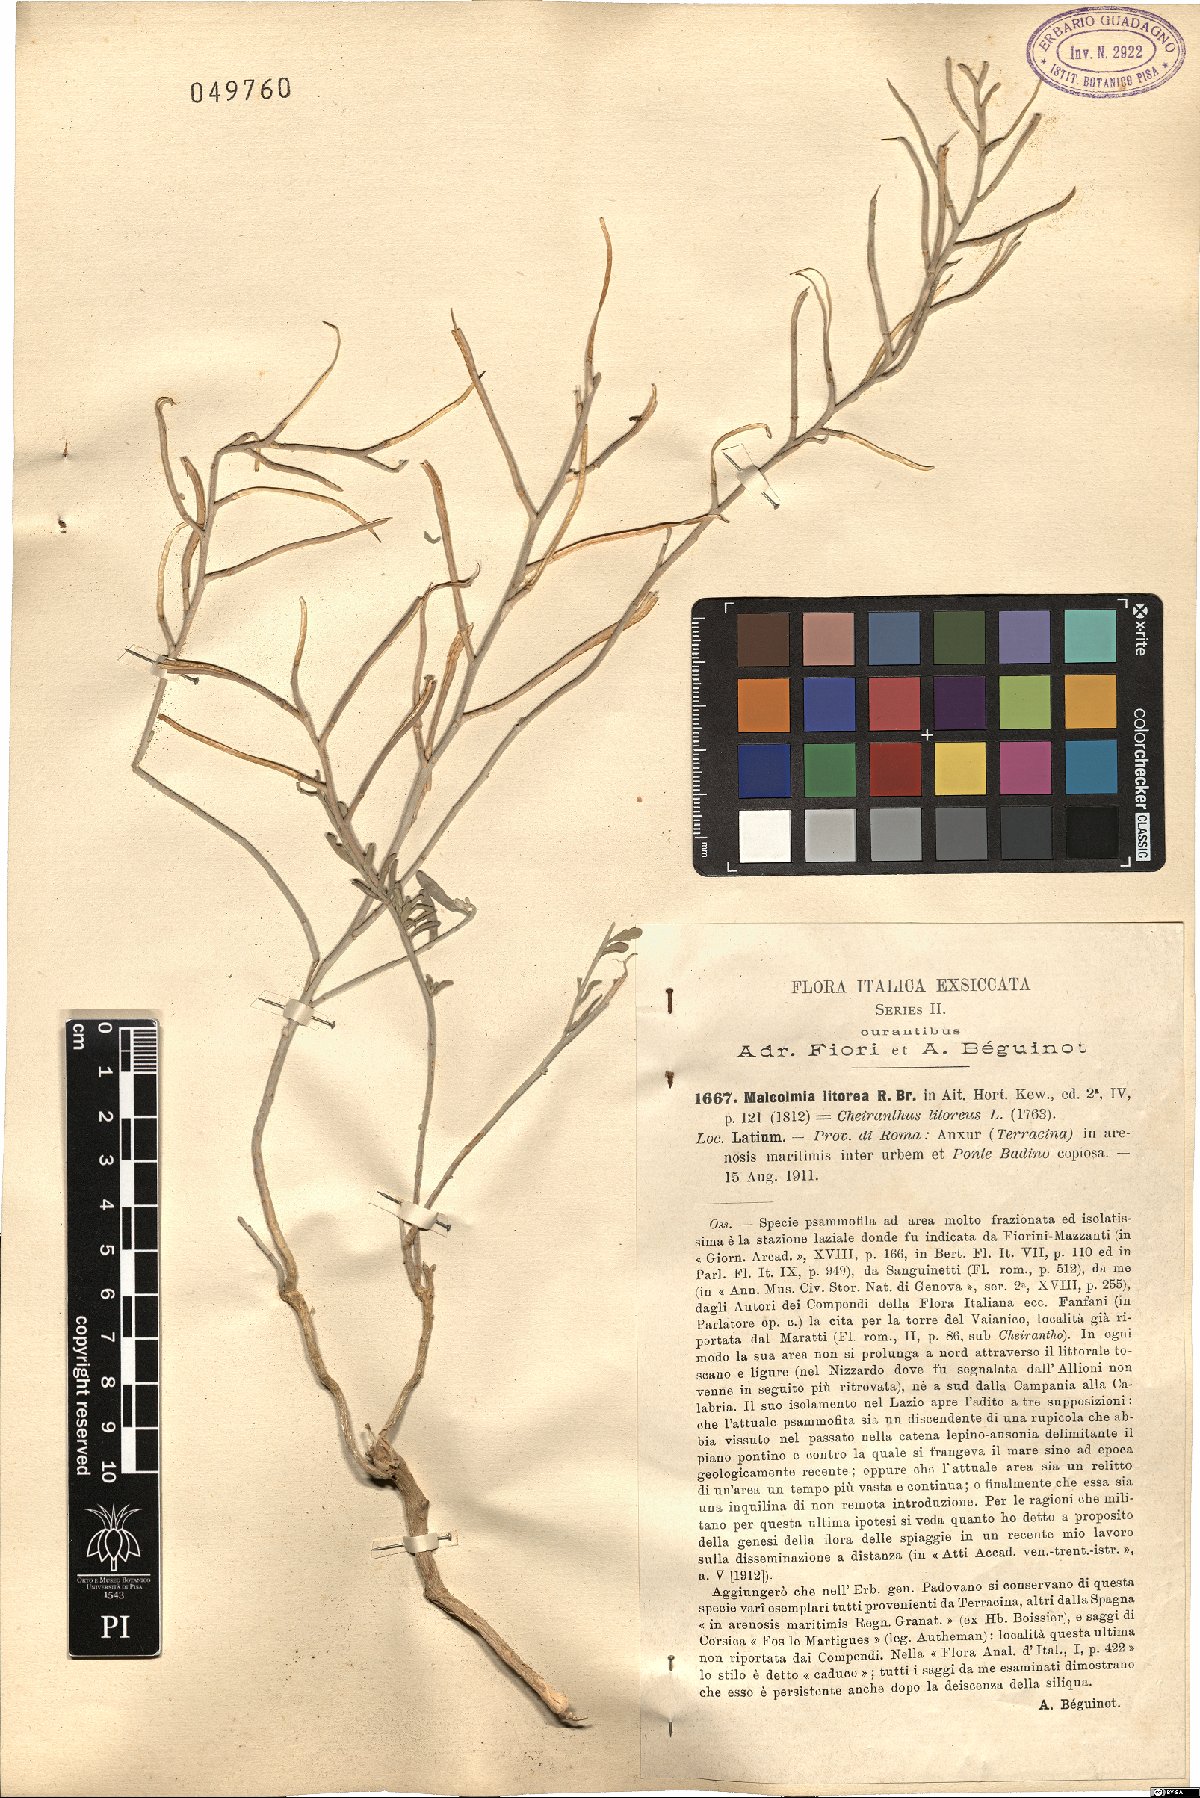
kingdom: Plantae
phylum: Tracheophyta
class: Magnoliopsida
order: Brassicales
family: Brassicaceae
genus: Marcuskochia
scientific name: Marcuskochia littorea
